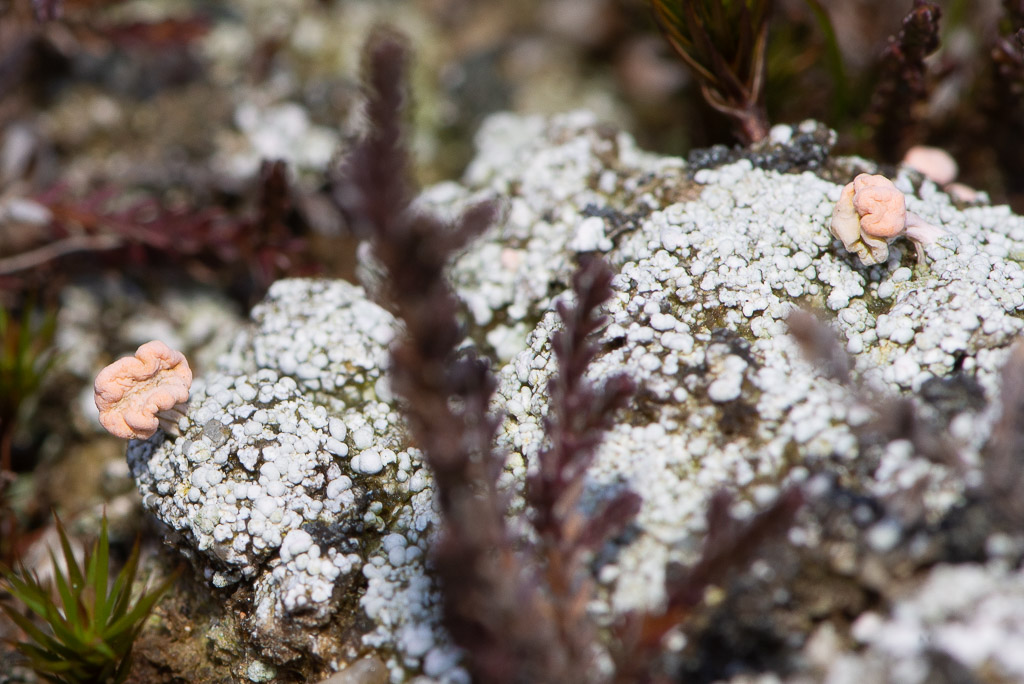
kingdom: Fungi
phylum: Ascomycota
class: Lecanoromycetes
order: Pertusariales
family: Icmadophilaceae
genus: Dibaeis
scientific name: Dibaeis baeomyces
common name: rosenrød stilav
